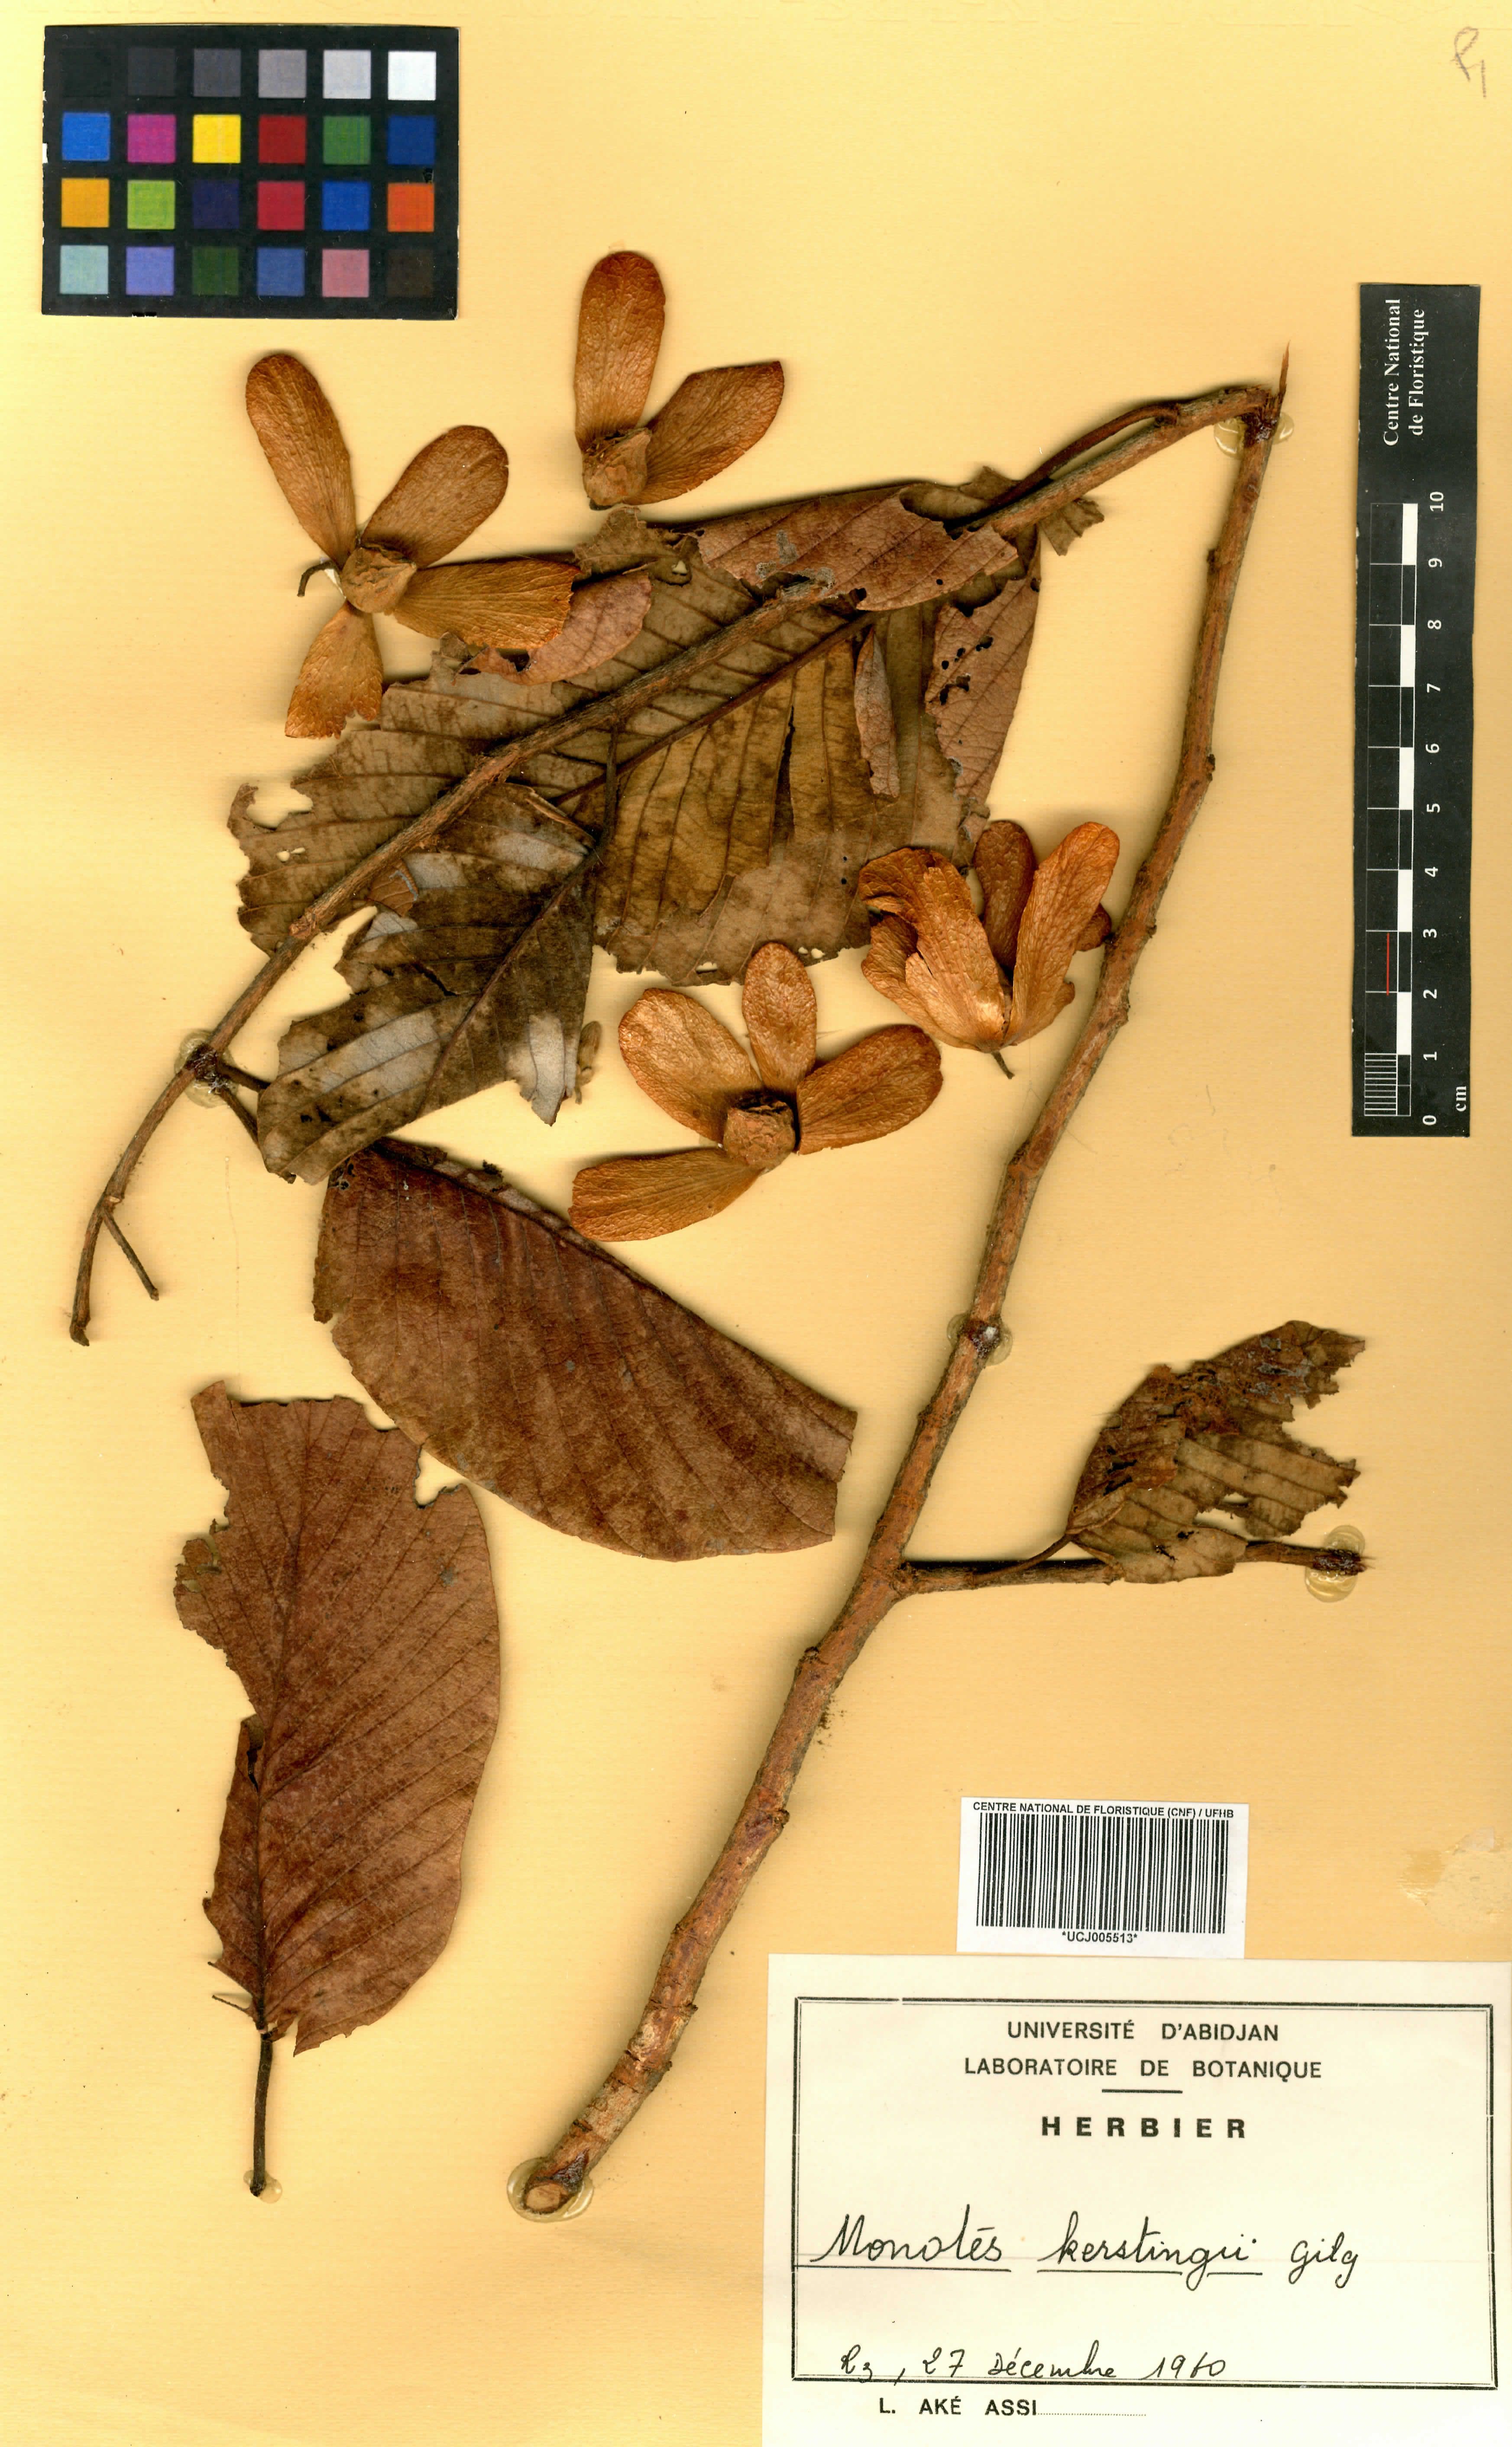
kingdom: Plantae
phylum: Tracheophyta
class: Magnoliopsida
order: Malvales
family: Dipterocarpaceae
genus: Monotes
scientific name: Monotes kerstingii
